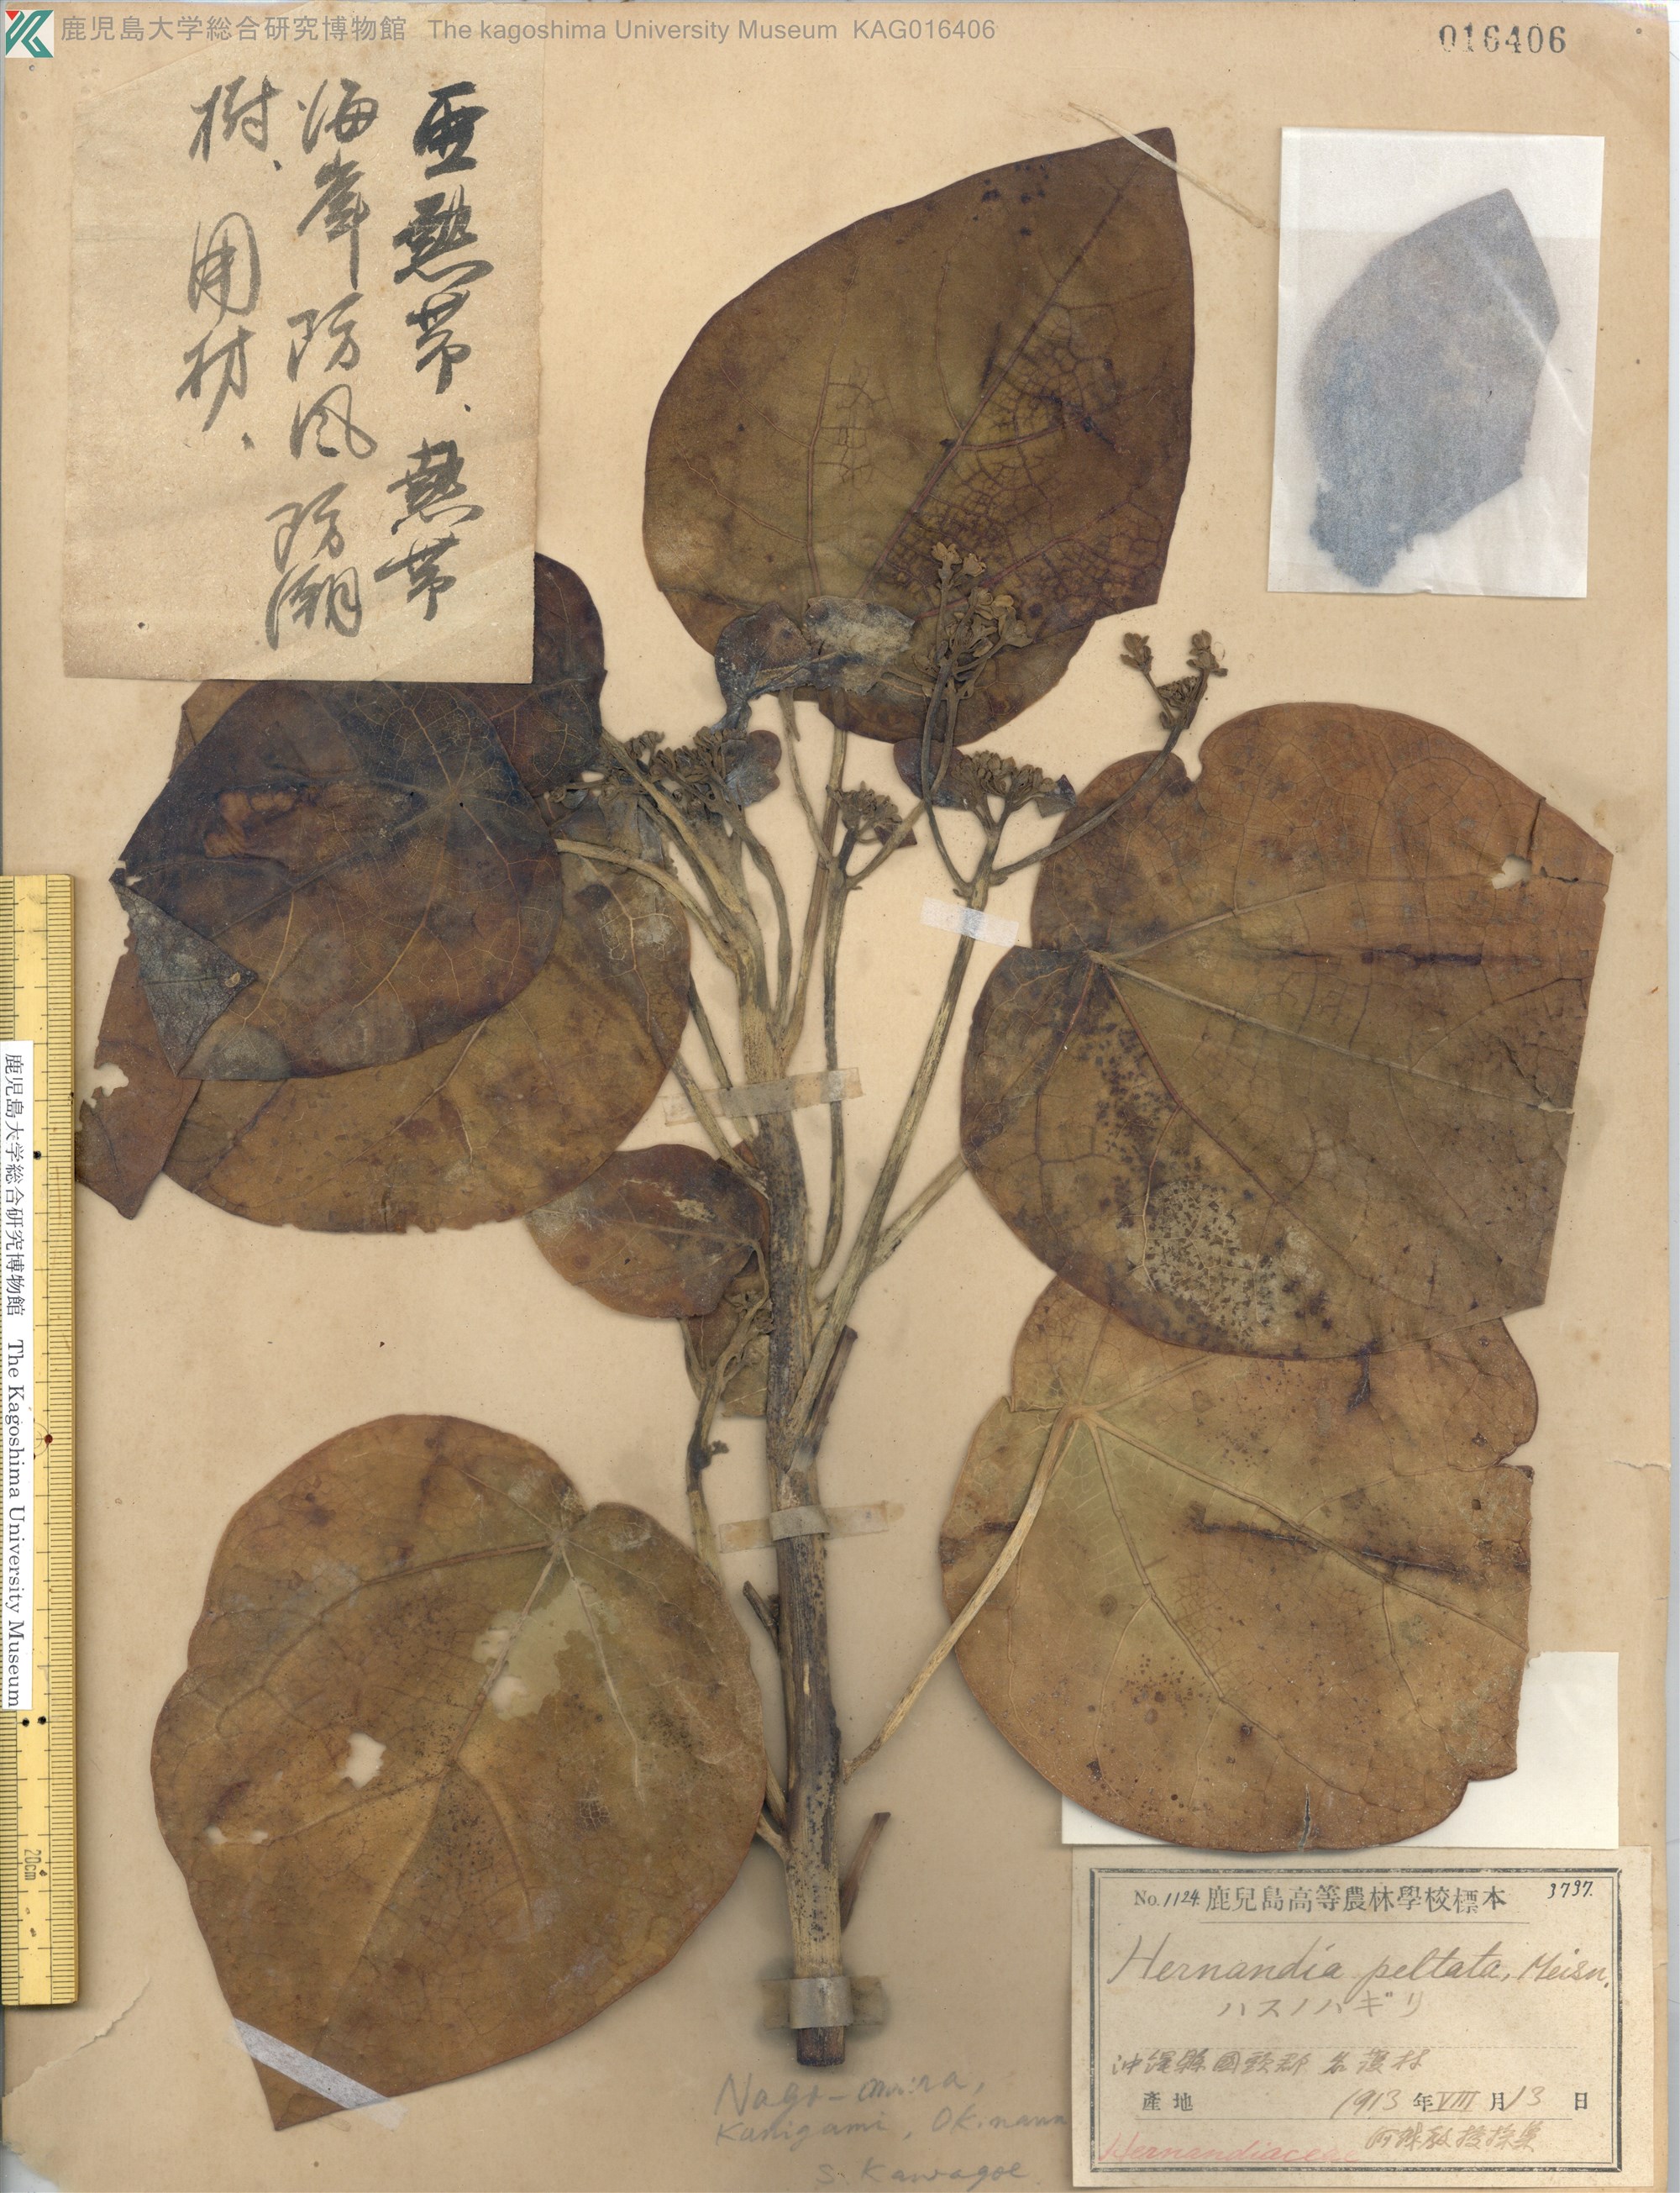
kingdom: Plantae
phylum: Tracheophyta
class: Magnoliopsida
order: Laurales
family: Hernandiaceae
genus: Hernandia
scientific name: Hernandia nymphaeifolia
